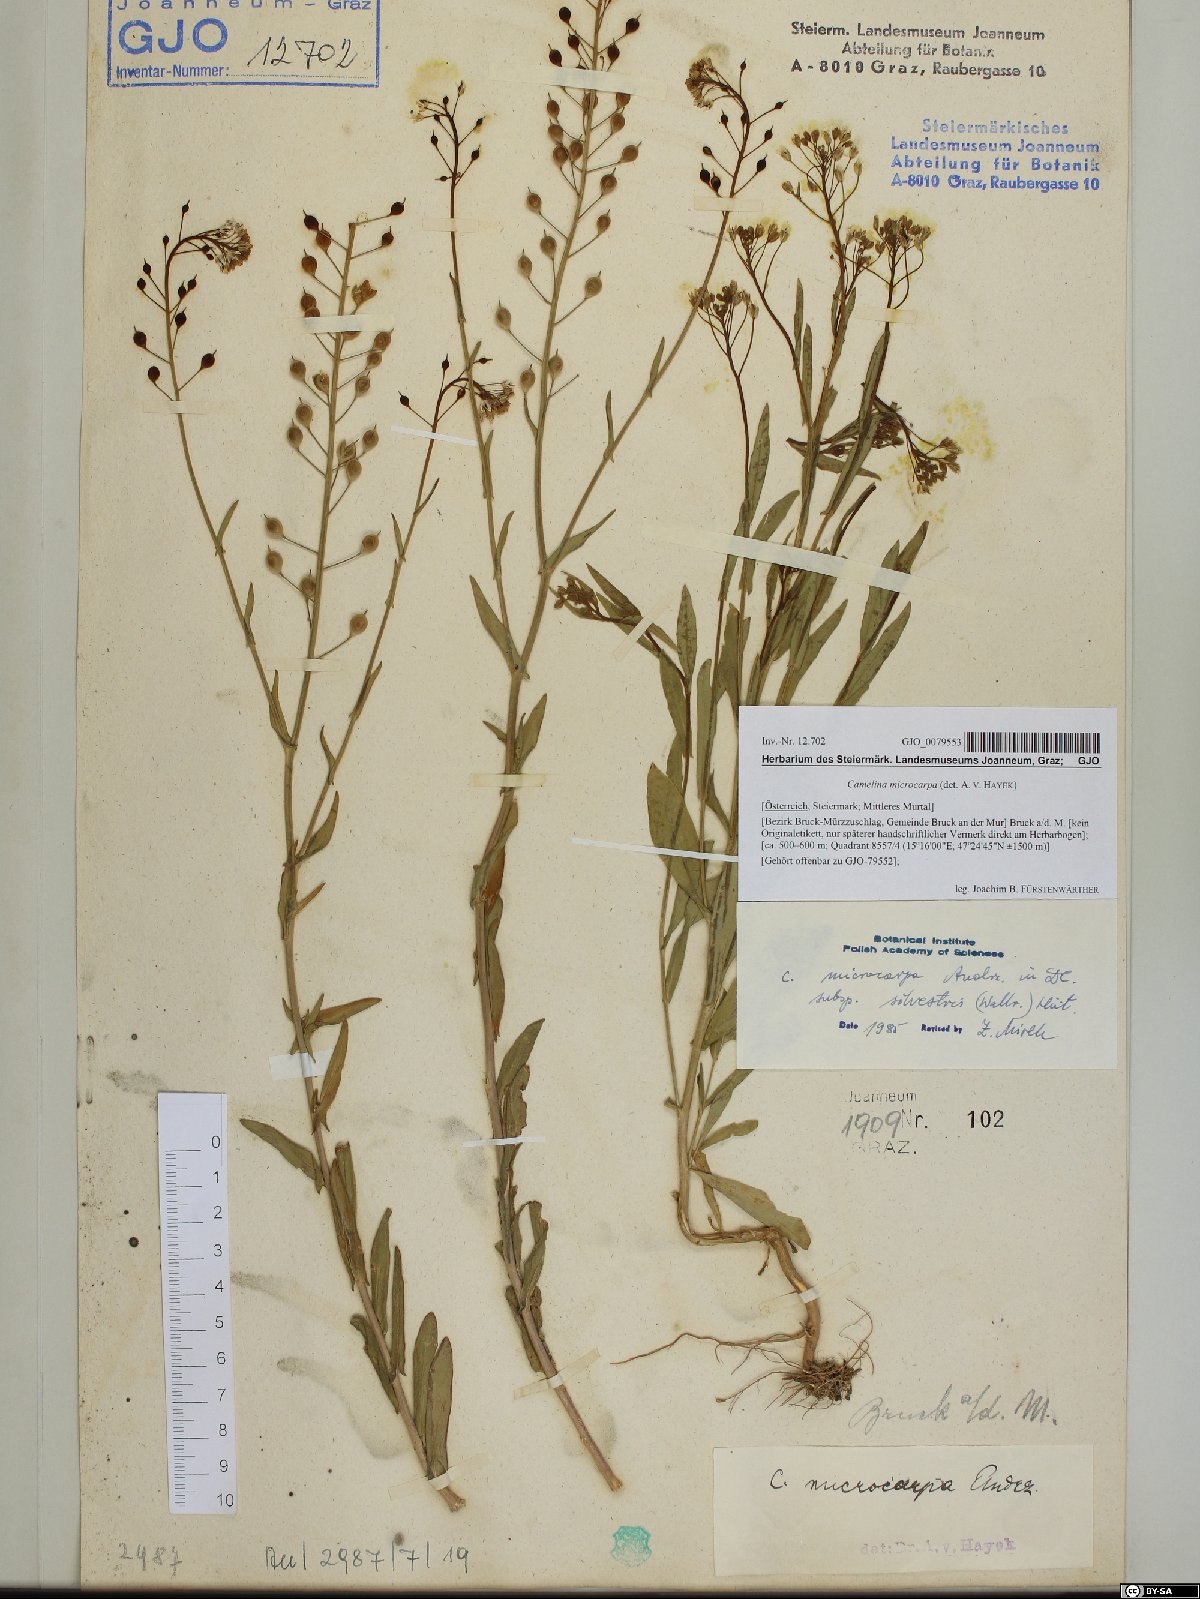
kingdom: Plantae
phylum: Tracheophyta
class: Magnoliopsida
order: Brassicales
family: Brassicaceae
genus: Camelina
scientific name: Camelina microcarpa
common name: Lesser gold-of-pleasure
